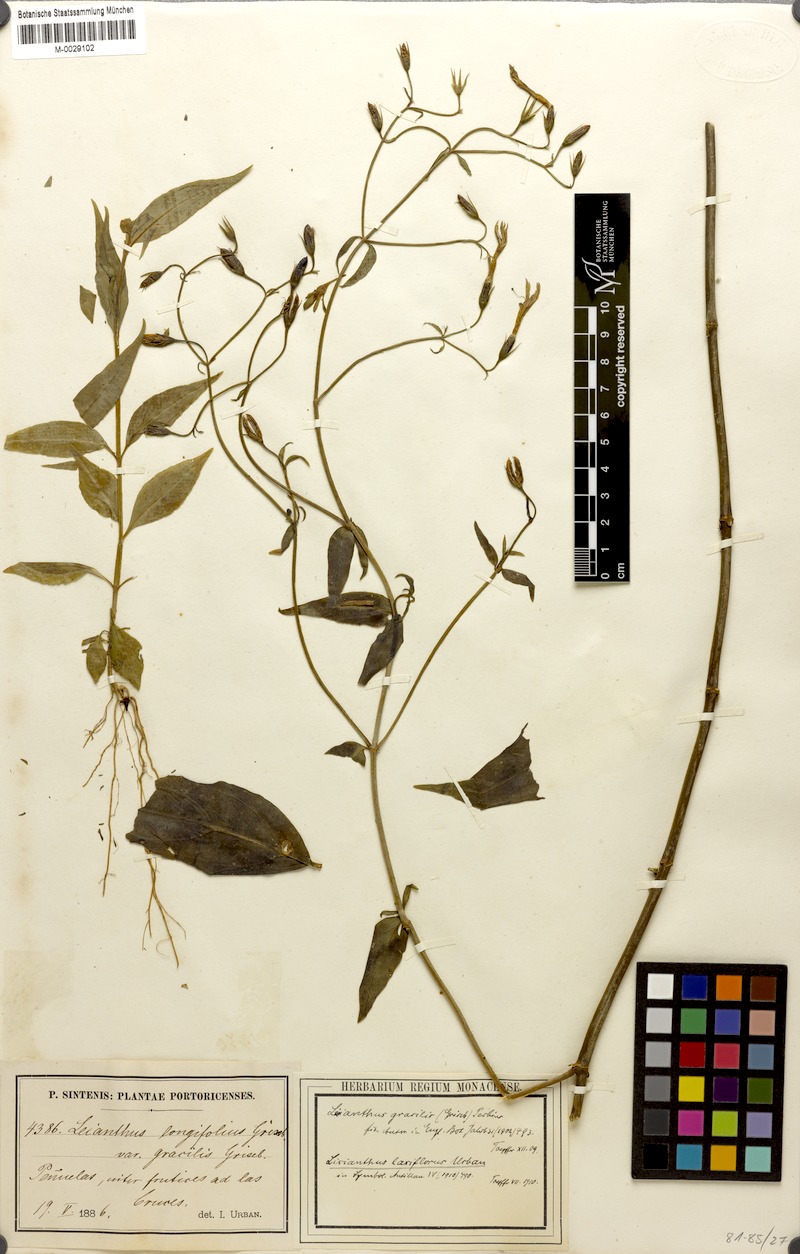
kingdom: Plantae
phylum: Tracheophyta
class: Magnoliopsida
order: Gentianales
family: Gentianaceae
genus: Lisianthius
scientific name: Lisianthius laxiflorus
